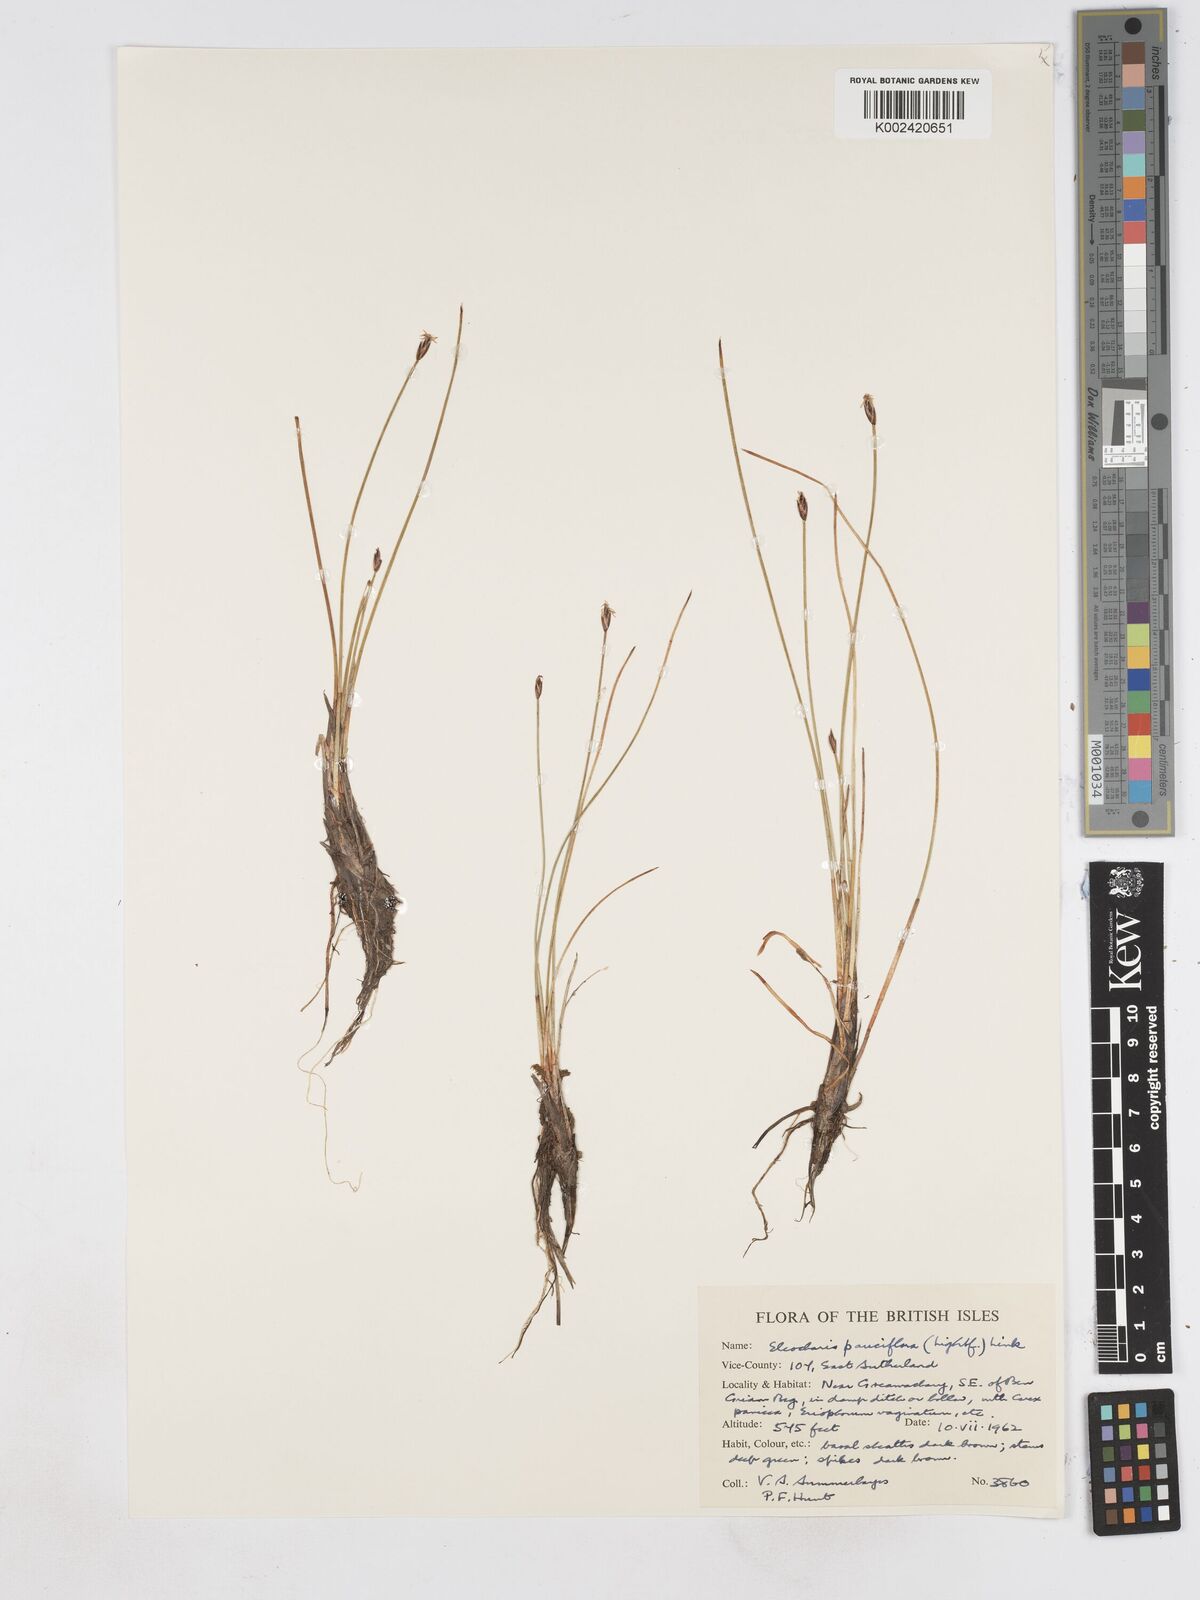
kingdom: Plantae
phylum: Tracheophyta
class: Liliopsida
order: Poales
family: Cyperaceae
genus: Eleocharis
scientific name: Eleocharis quinqueflora
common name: Few-flowered spike-rush
